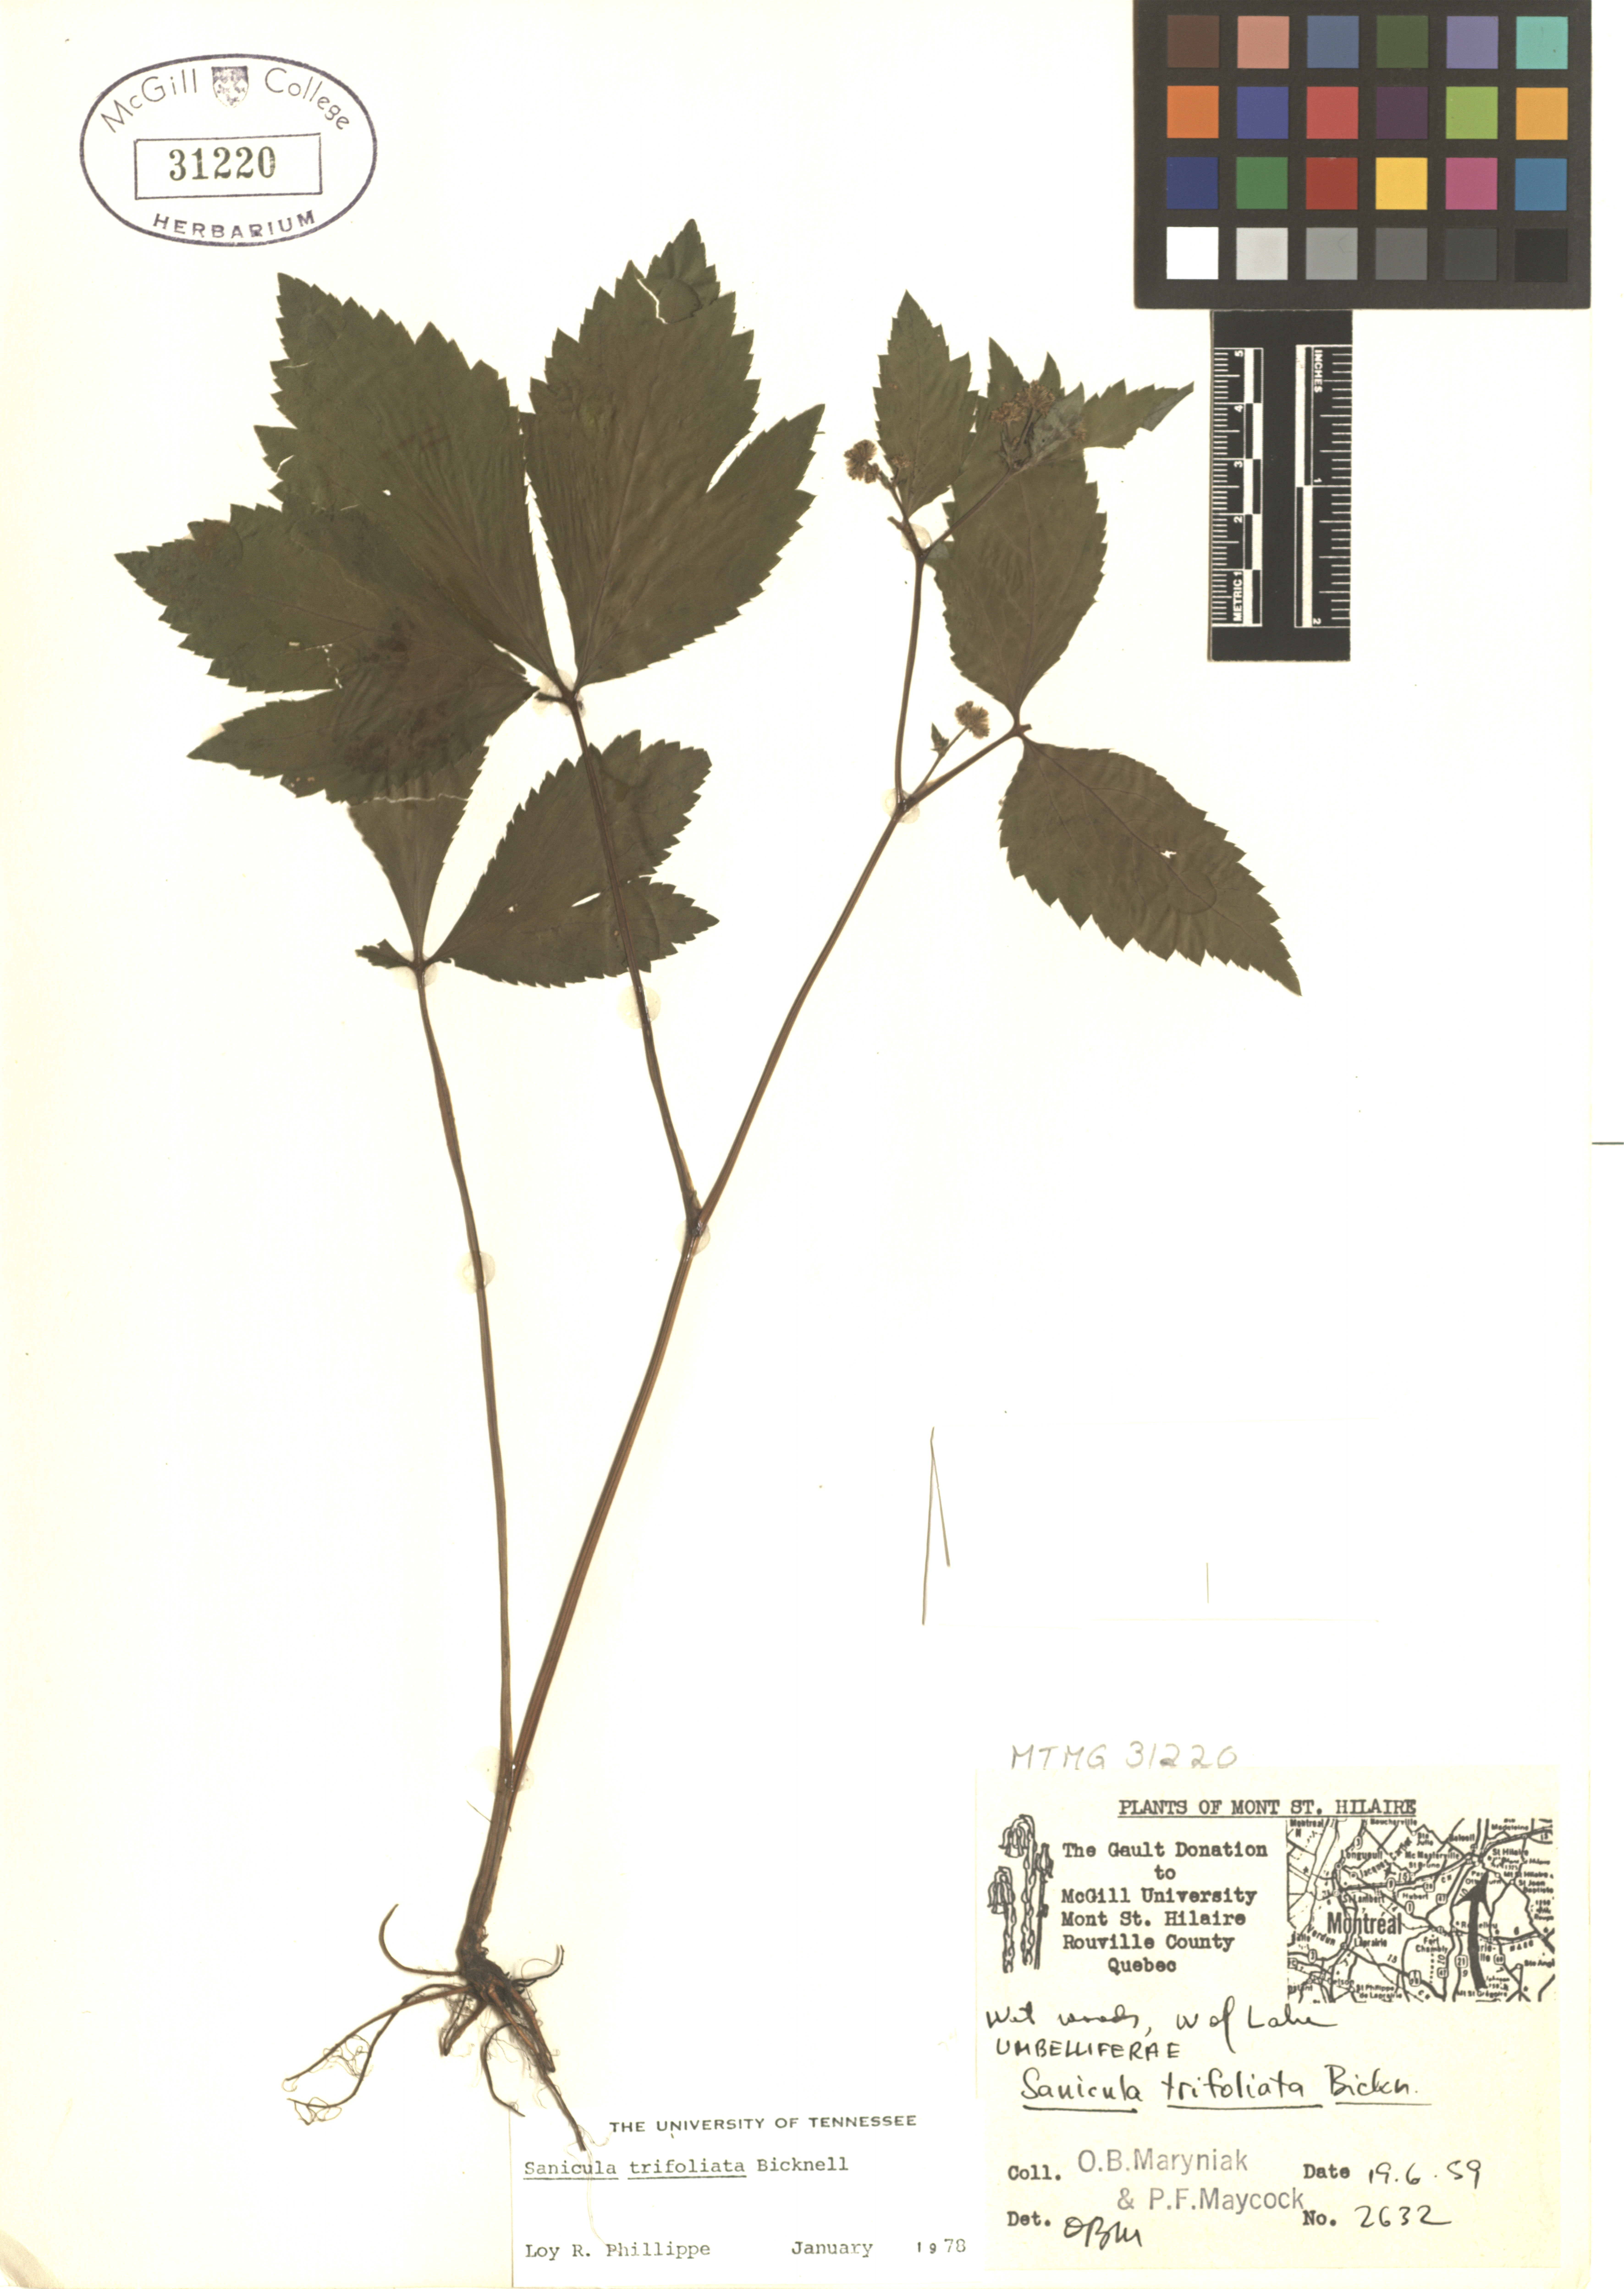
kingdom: Plantae
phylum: Tracheophyta
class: Magnoliopsida
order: Apiales
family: Apiaceae
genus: Sanicula
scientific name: Sanicula trifoliata
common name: Beaked sanicle
